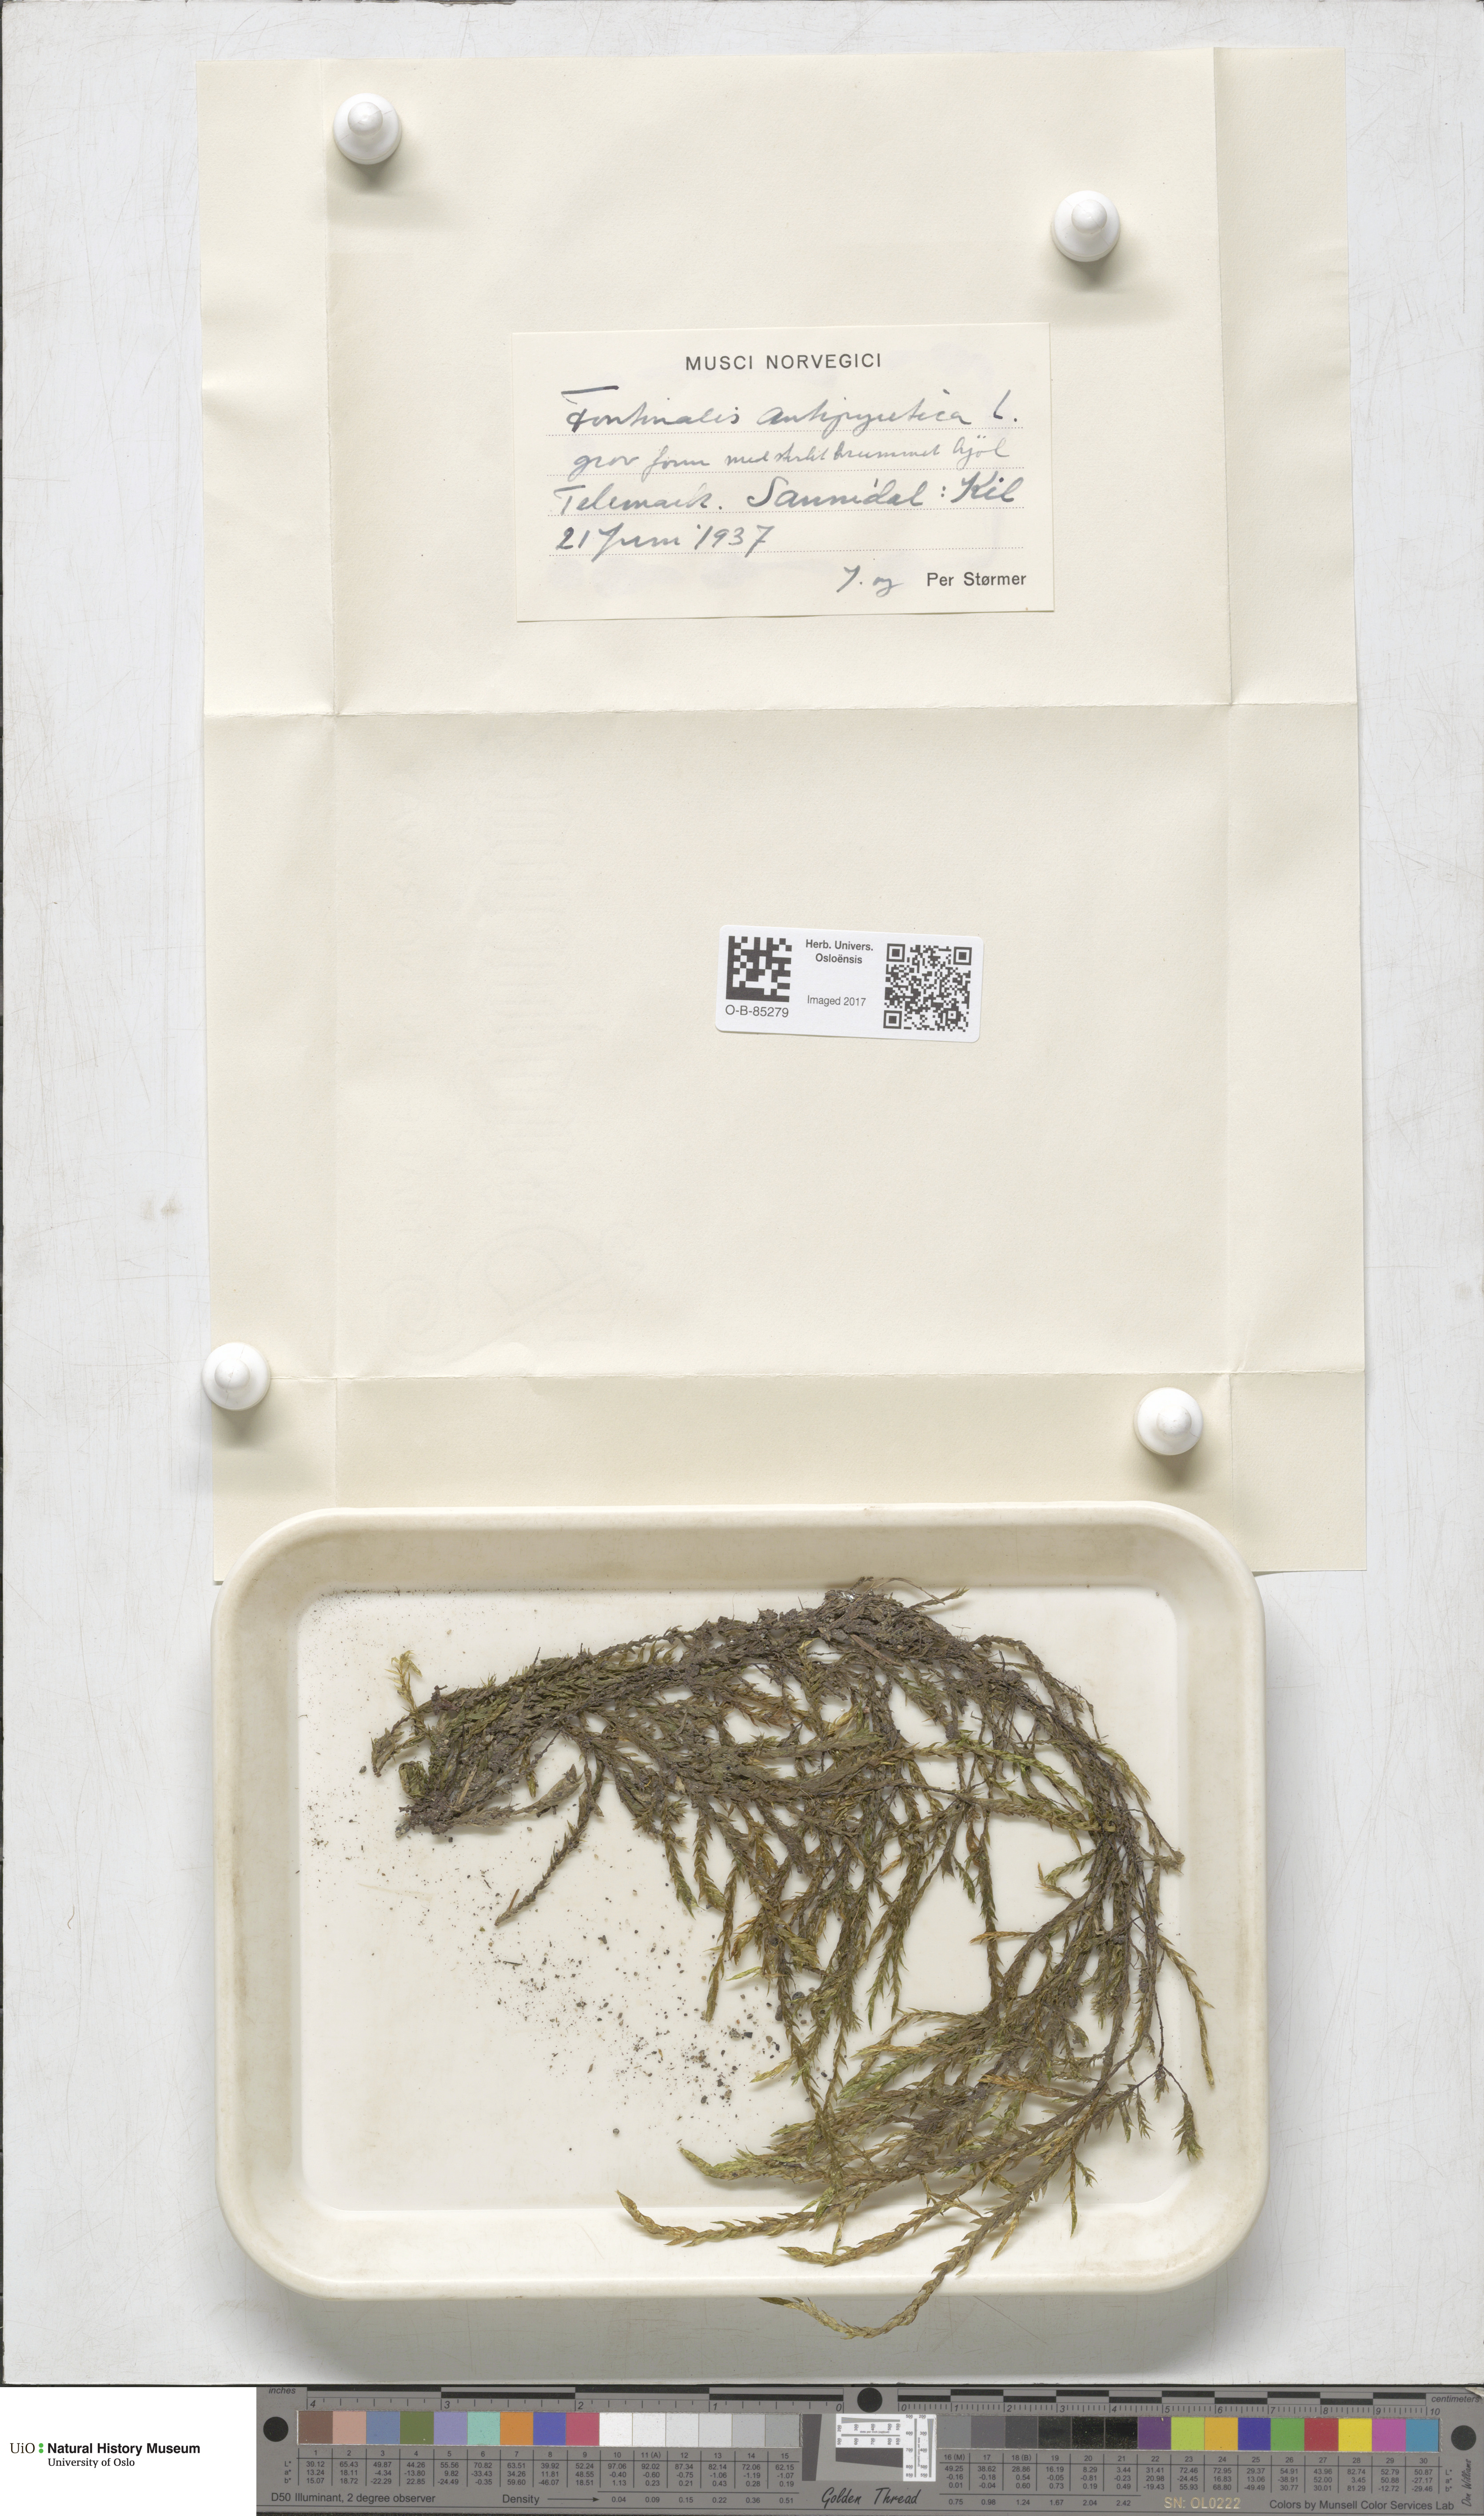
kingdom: Plantae
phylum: Bryophyta
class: Bryopsida
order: Hypnales
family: Fontinalaceae
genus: Fontinalis
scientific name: Fontinalis antipyretica
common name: Greater water-moss
